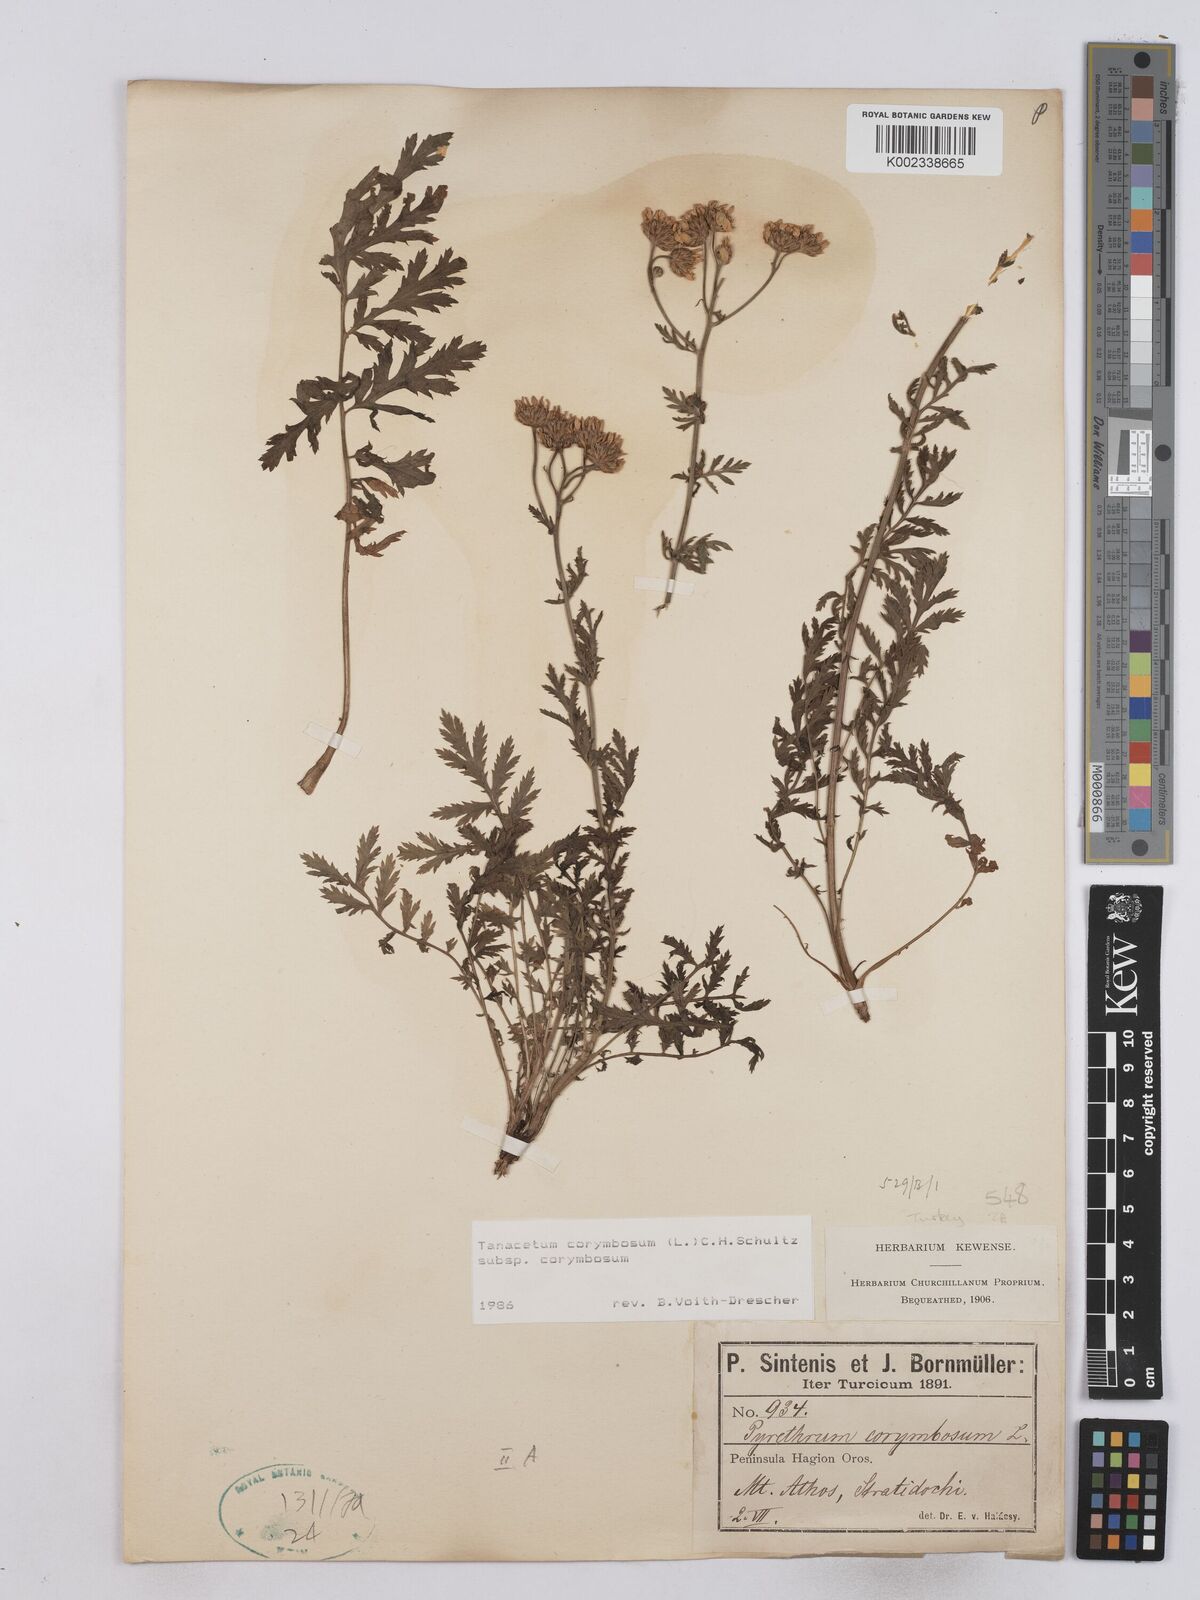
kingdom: Plantae
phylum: Tracheophyta
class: Magnoliopsida
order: Asterales
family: Asteraceae
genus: Tanacetum
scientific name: Tanacetum corymbosum
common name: Scentless feverfew
